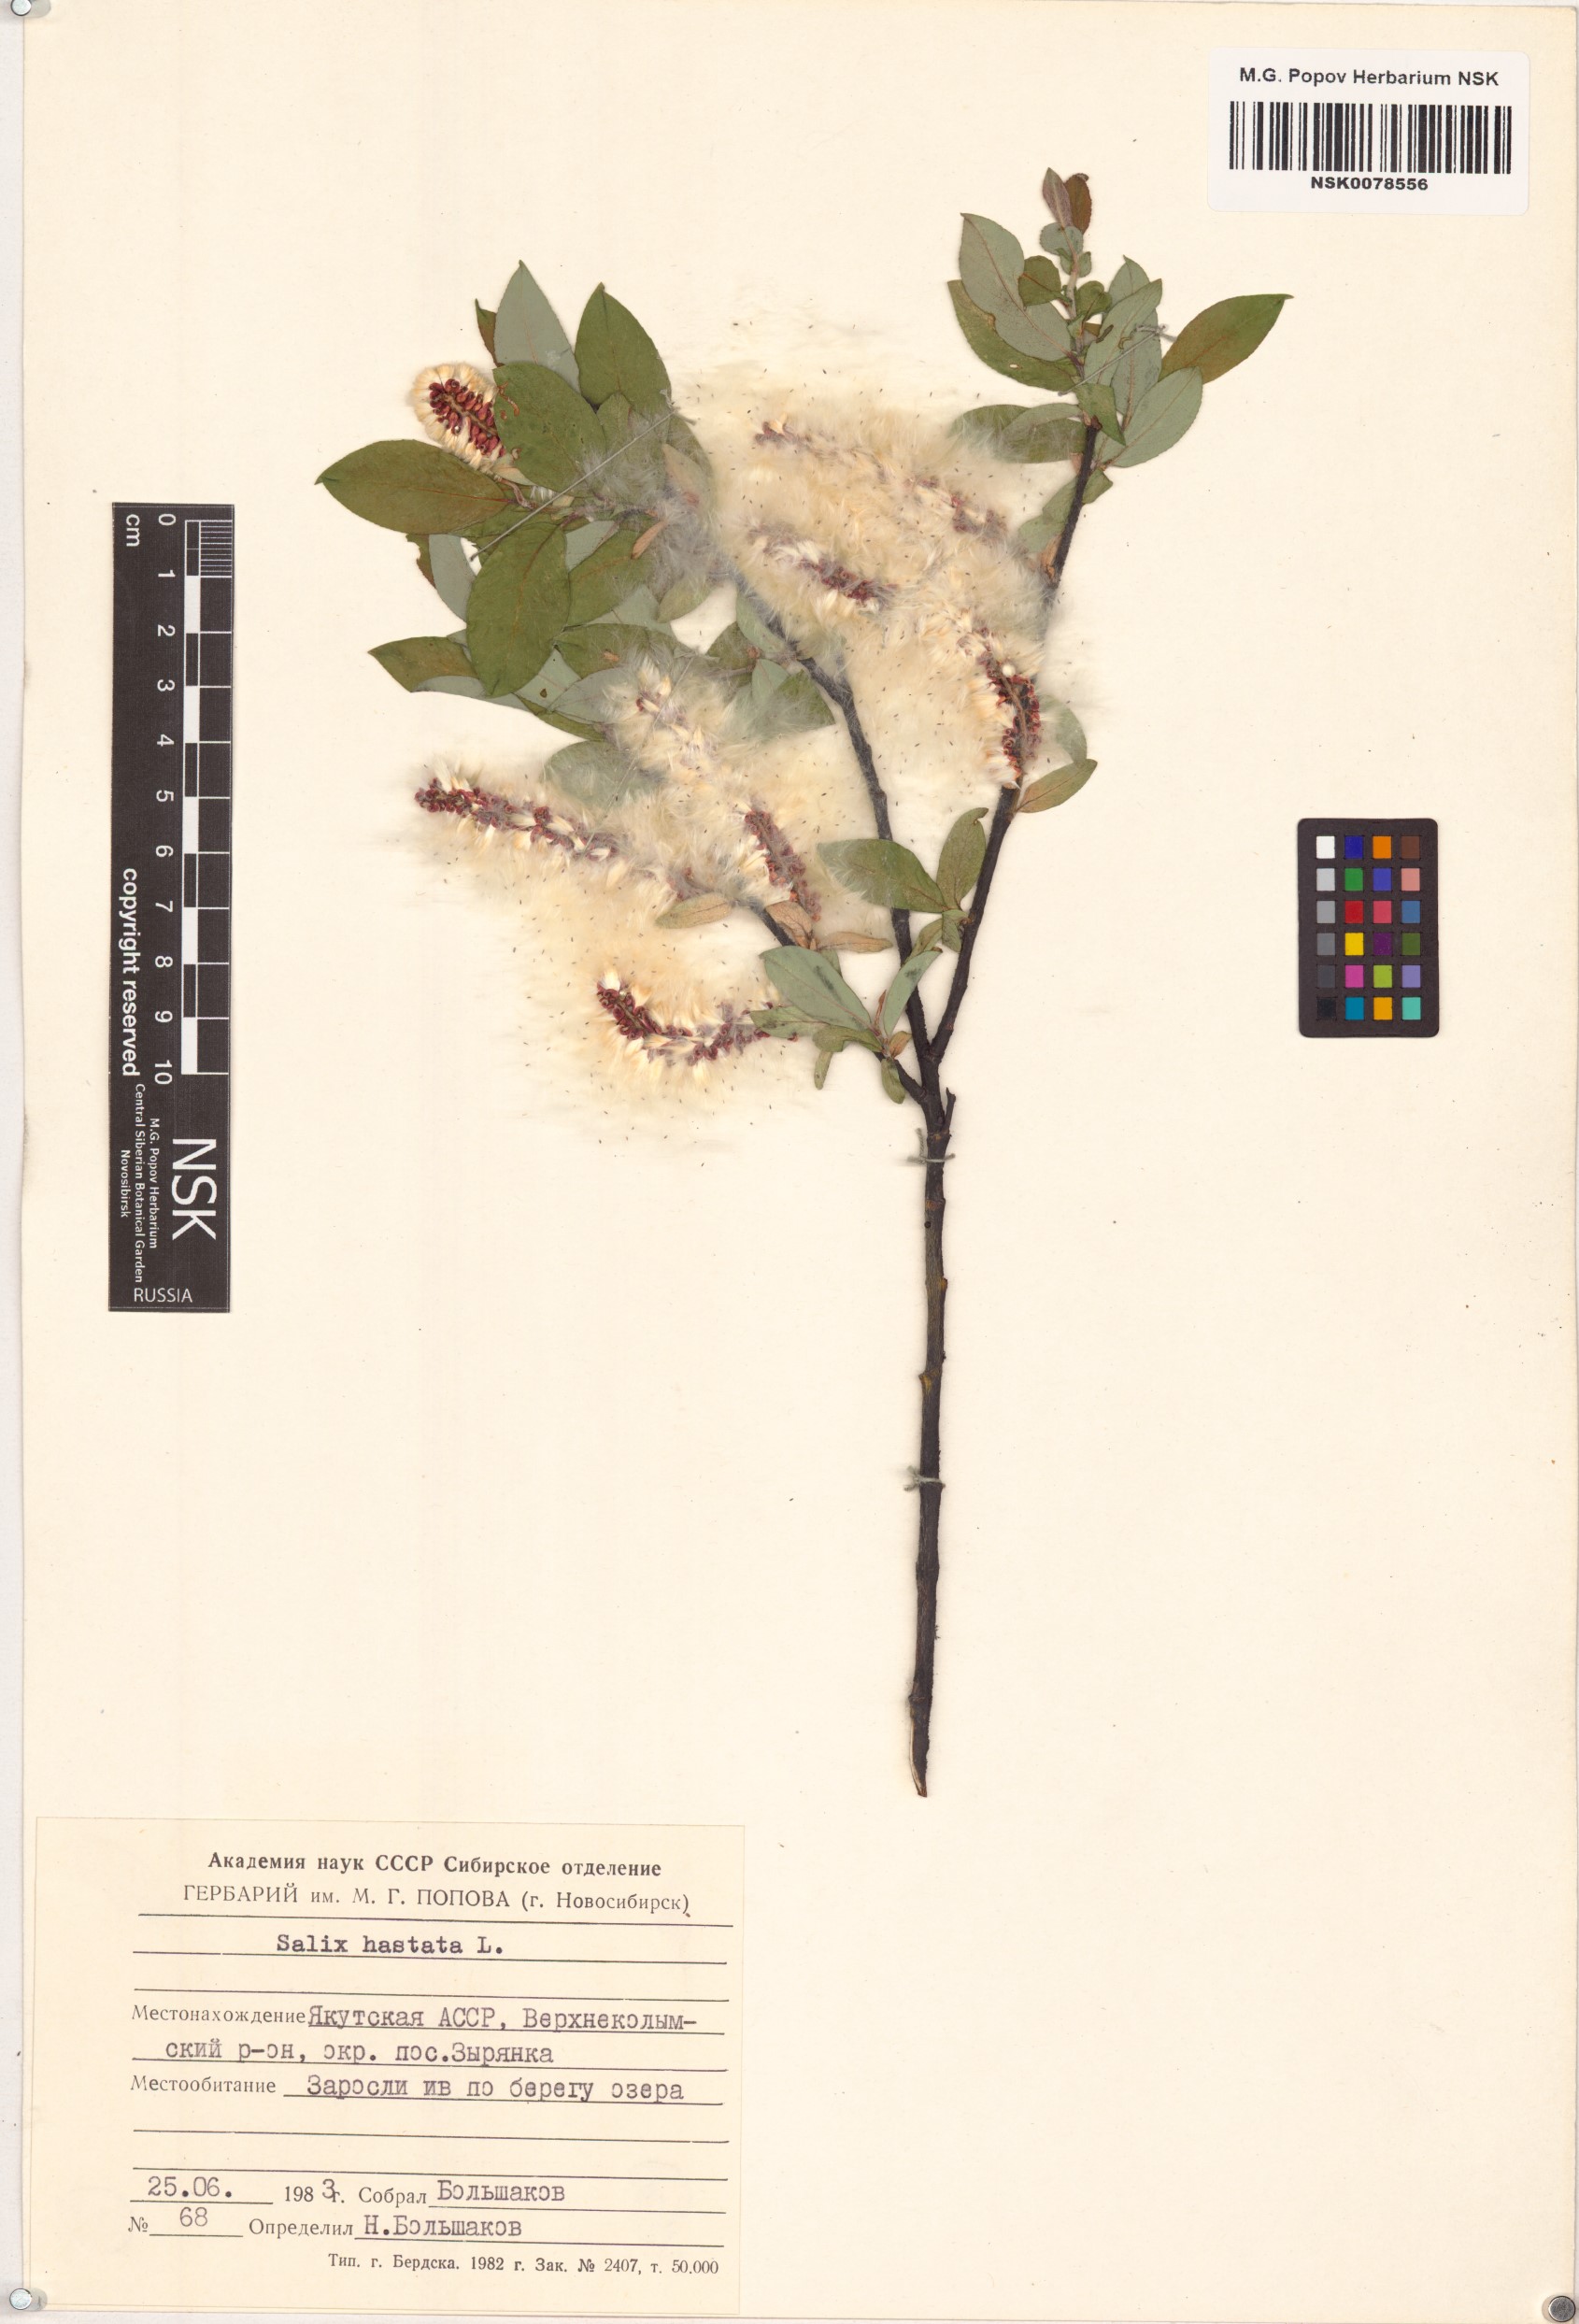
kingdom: Plantae
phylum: Tracheophyta
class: Magnoliopsida
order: Malpighiales
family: Salicaceae
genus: Salix
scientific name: Salix hastata
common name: Halberd willow
